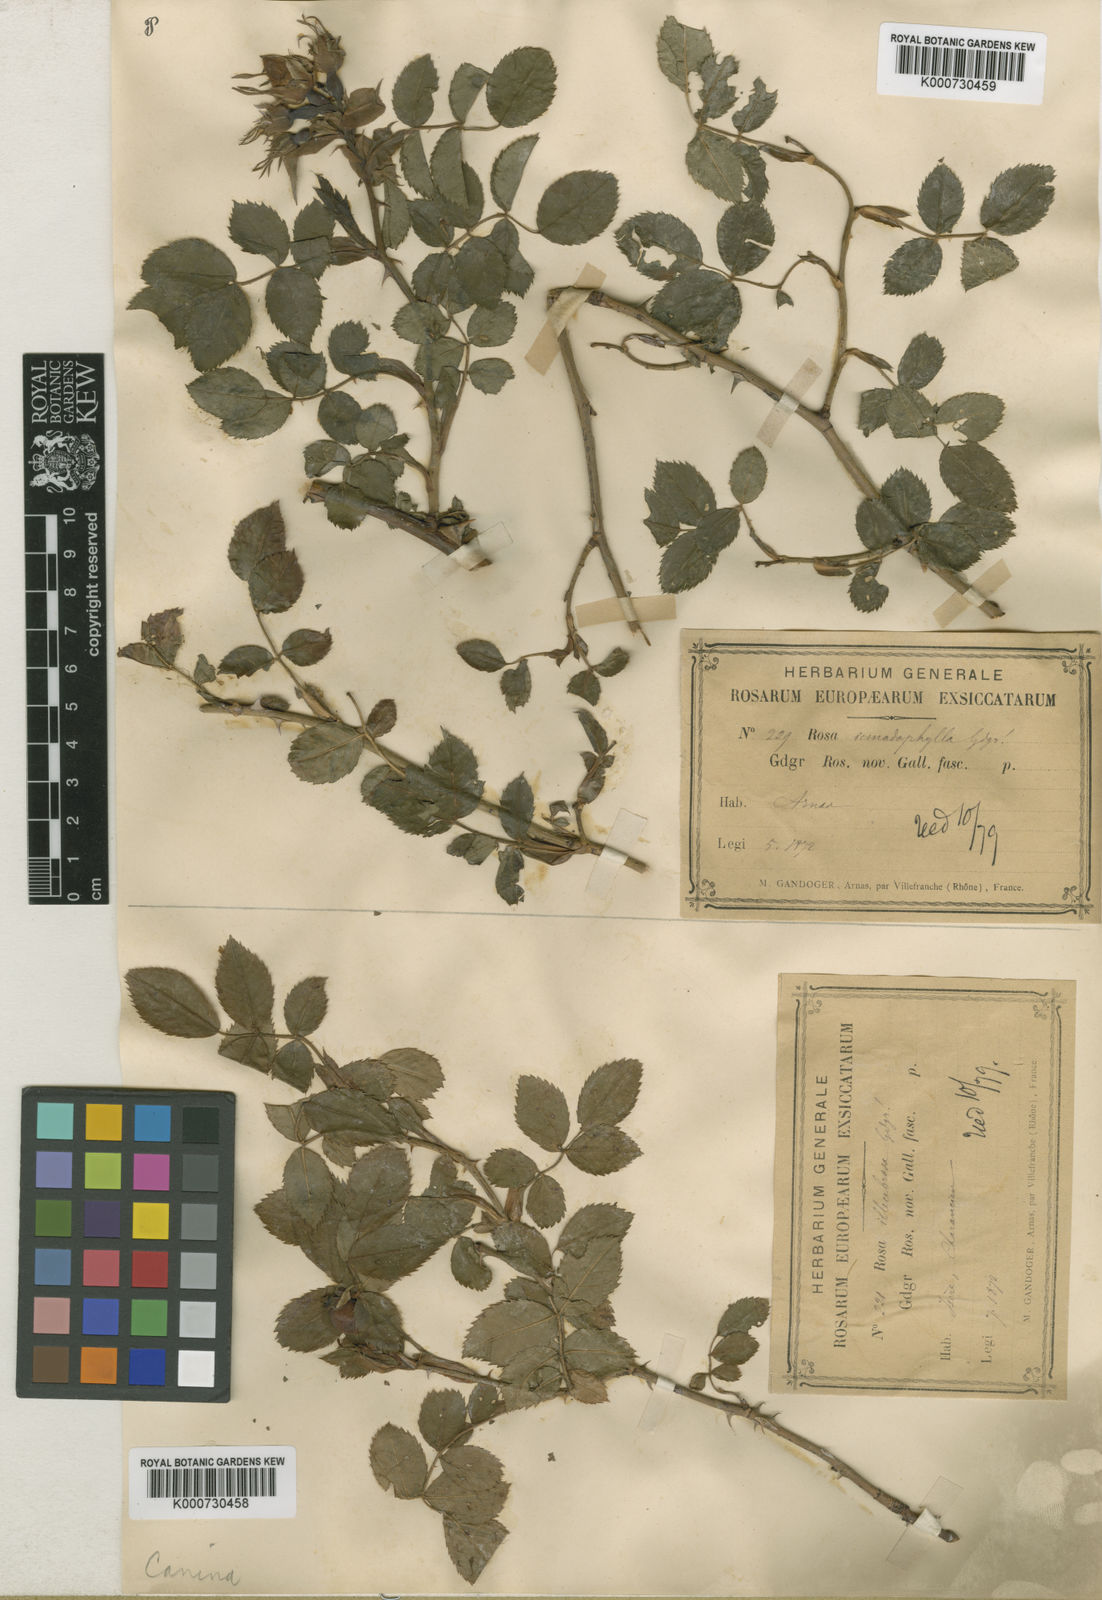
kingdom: Plantae
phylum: Tracheophyta
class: Magnoliopsida
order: Rosales
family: Rosaceae
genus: Rosa
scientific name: Rosa canina
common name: Dog rose
